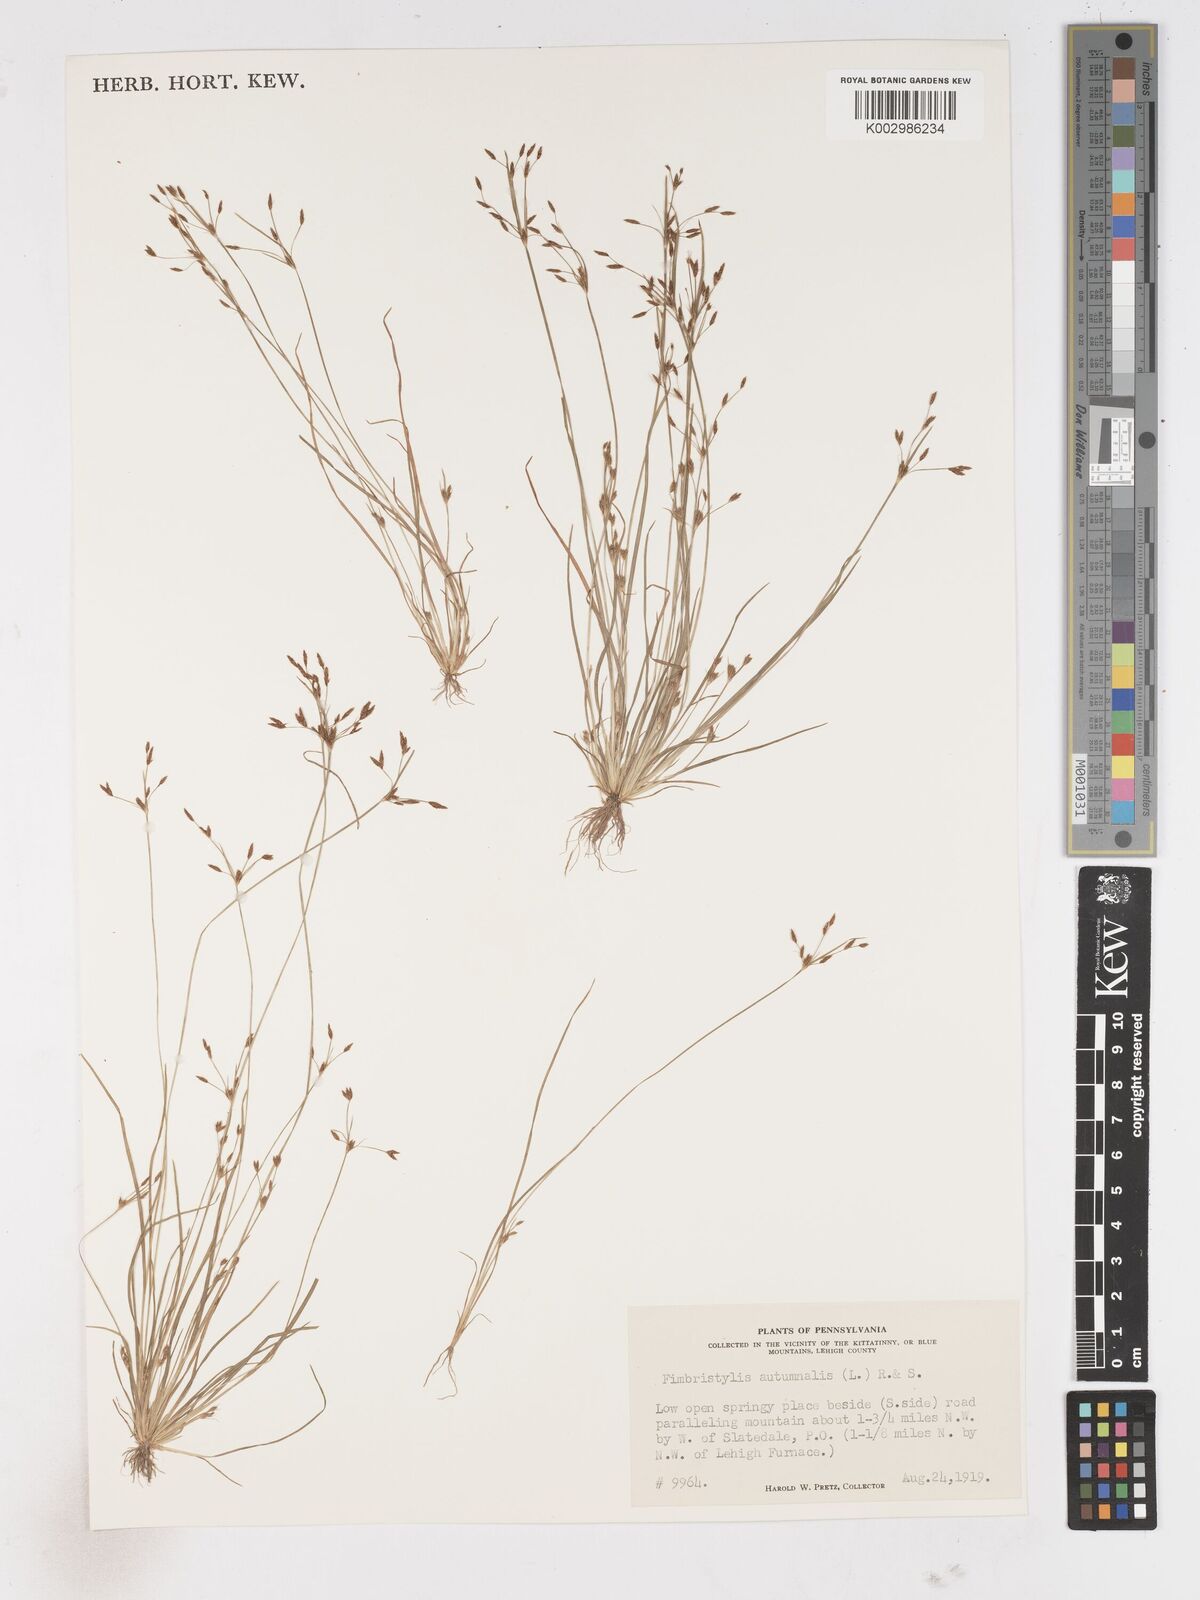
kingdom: Plantae
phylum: Tracheophyta
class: Liliopsida
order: Poales
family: Cyperaceae
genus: Fimbristylis
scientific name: Fimbristylis autumnalis
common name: Slender fimbristylis
